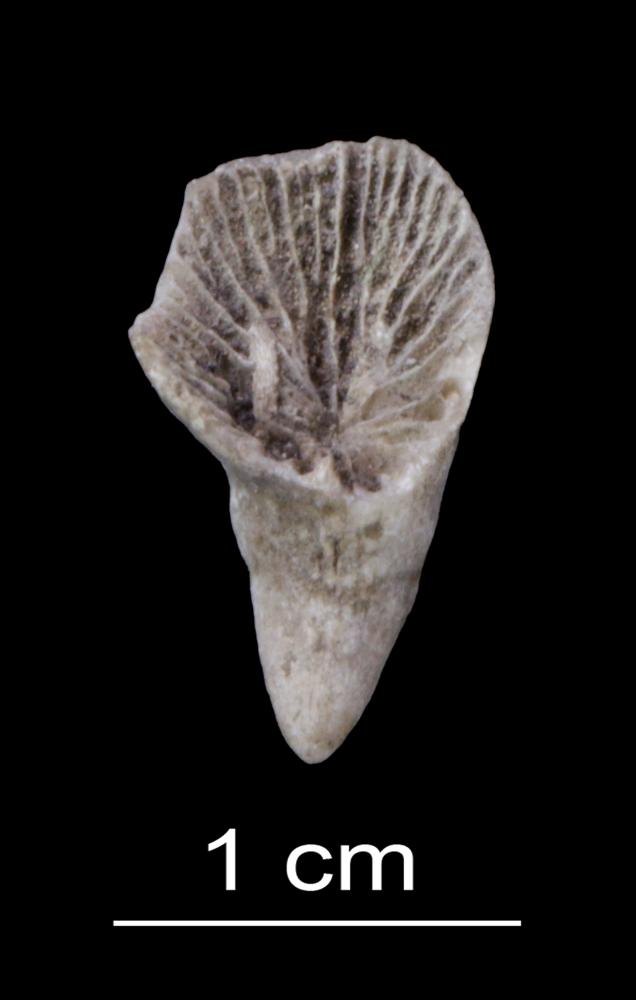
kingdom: Animalia
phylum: Cnidaria
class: Anthozoa
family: Halliidae
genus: Aulacophyllum
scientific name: Aulacophyllum
